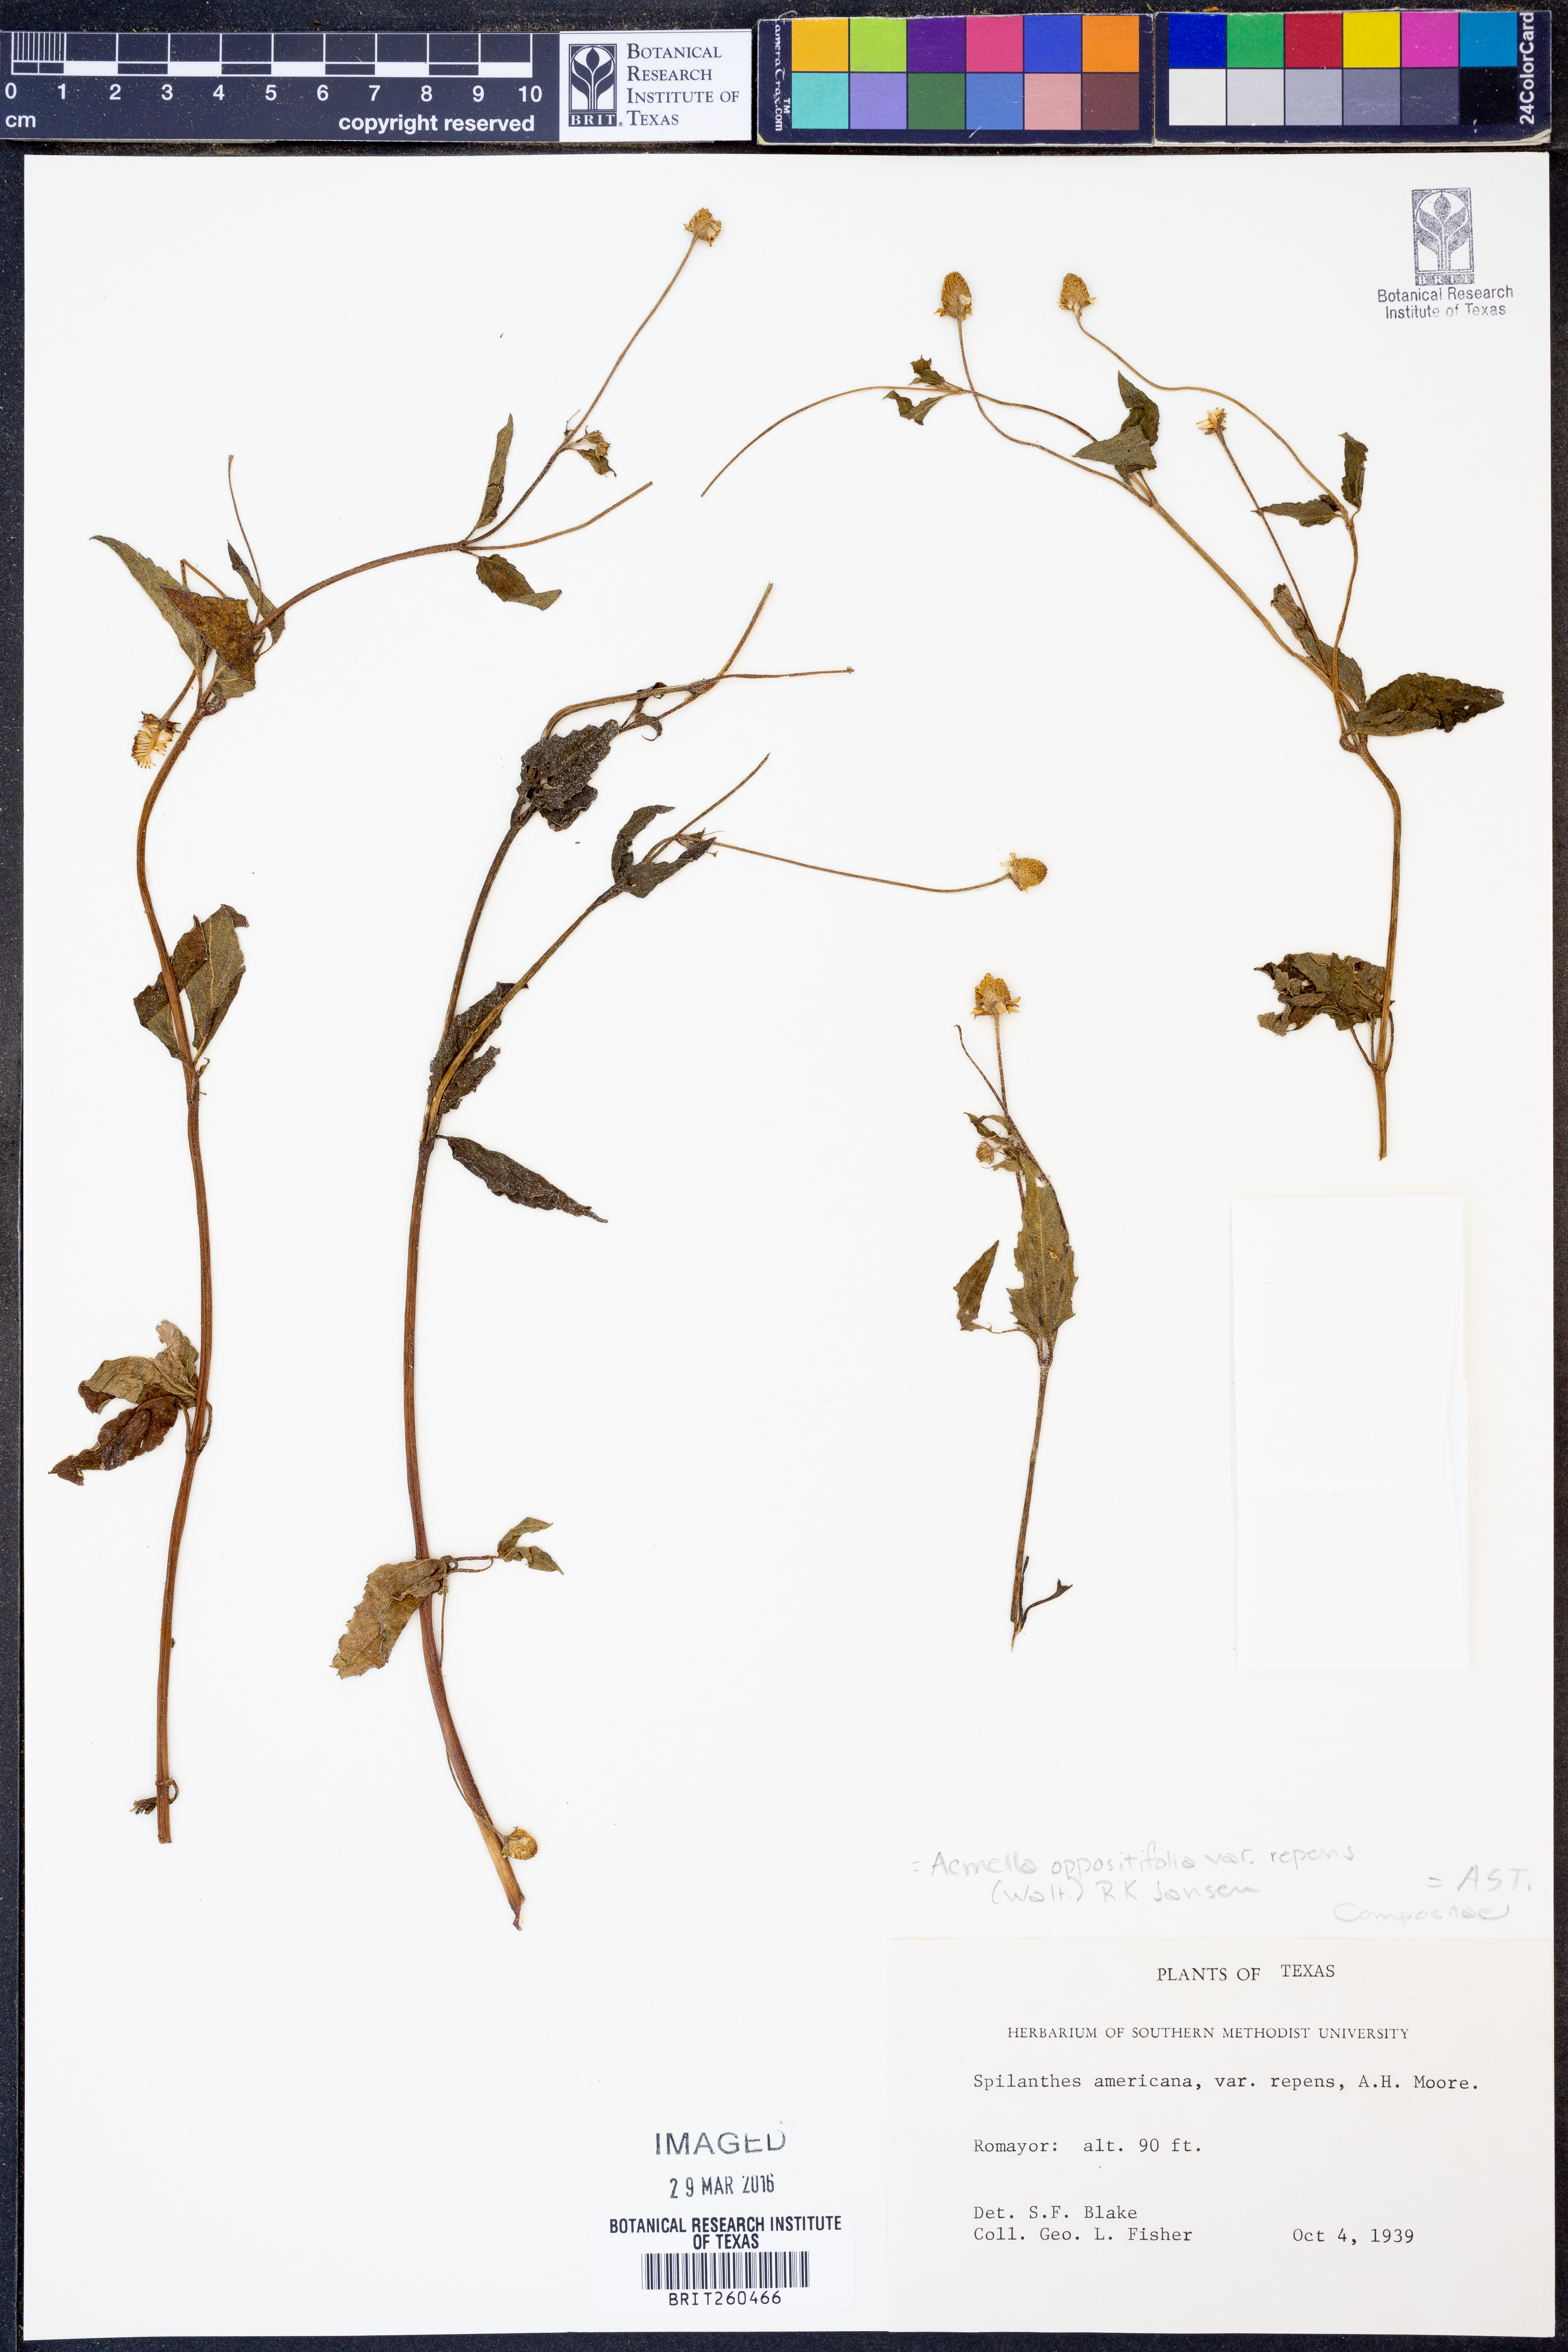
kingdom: Plantae
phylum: Tracheophyta
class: Magnoliopsida
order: Asterales
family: Asteraceae
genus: Acmella
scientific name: Acmella repens
